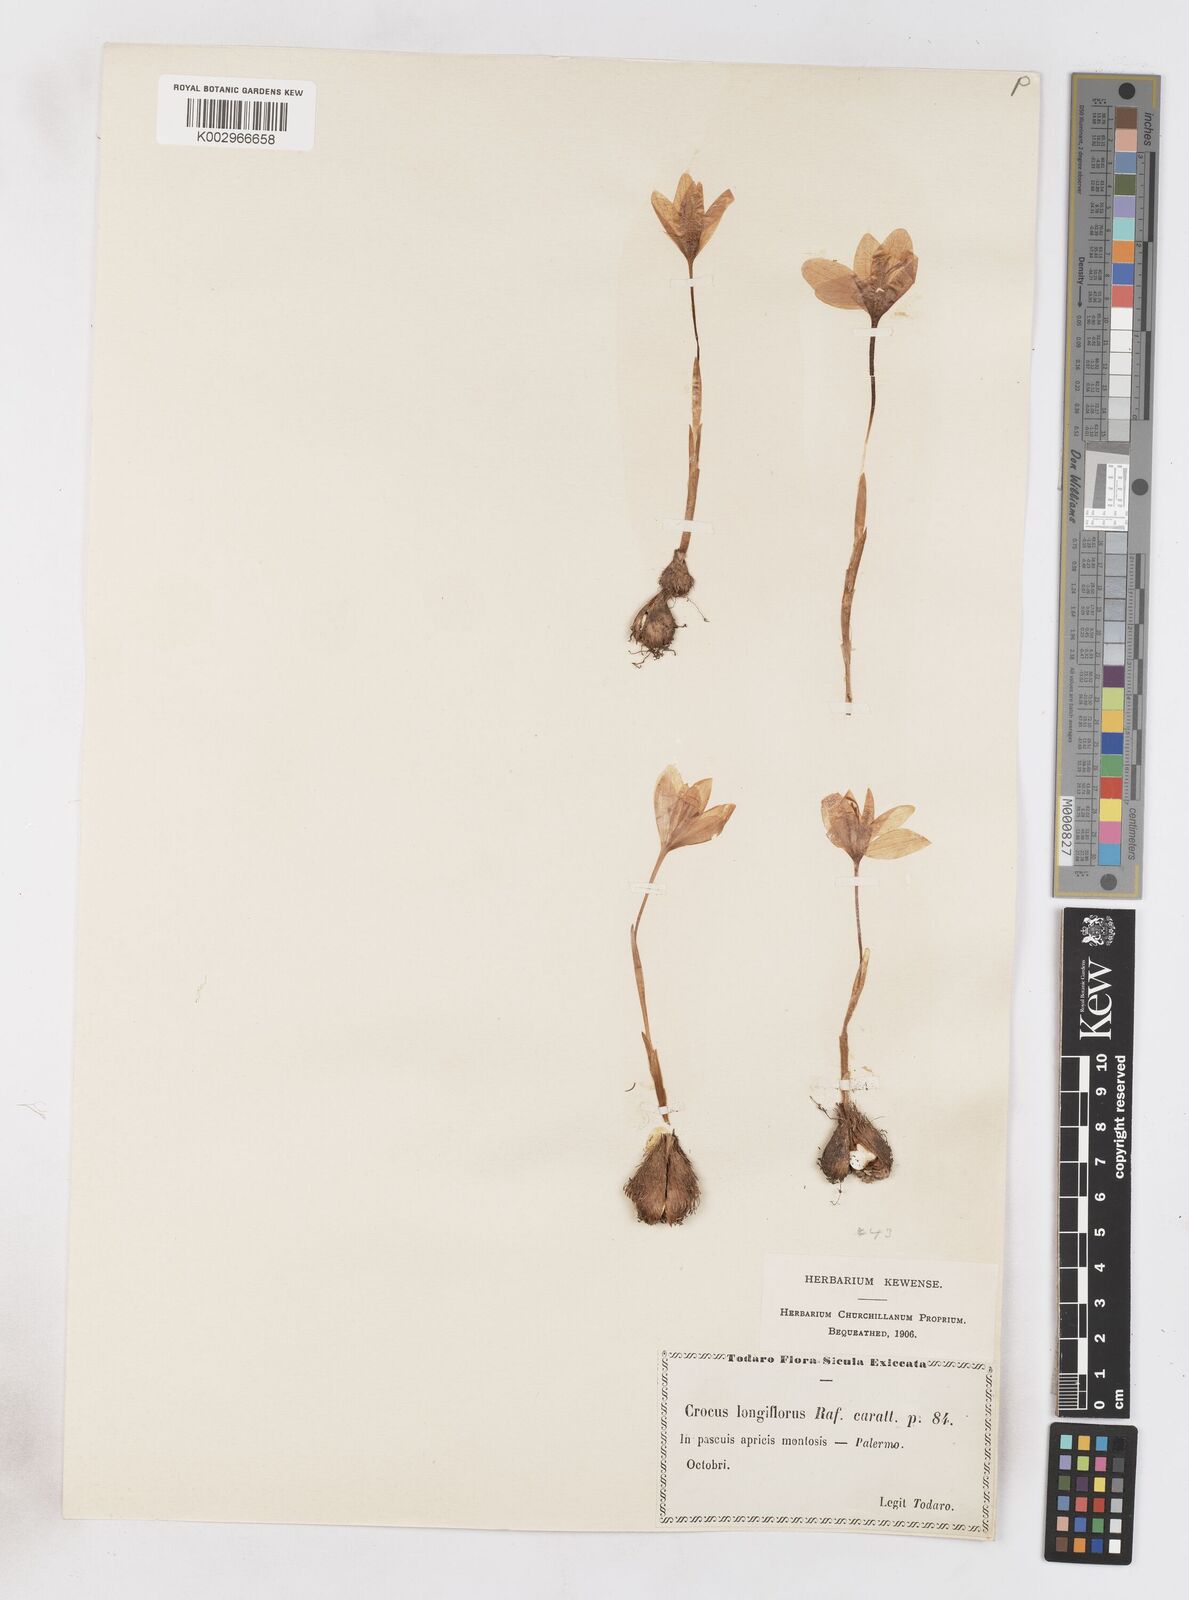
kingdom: Plantae
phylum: Tracheophyta
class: Liliopsida
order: Asparagales
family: Iridaceae
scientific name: Iridaceae
